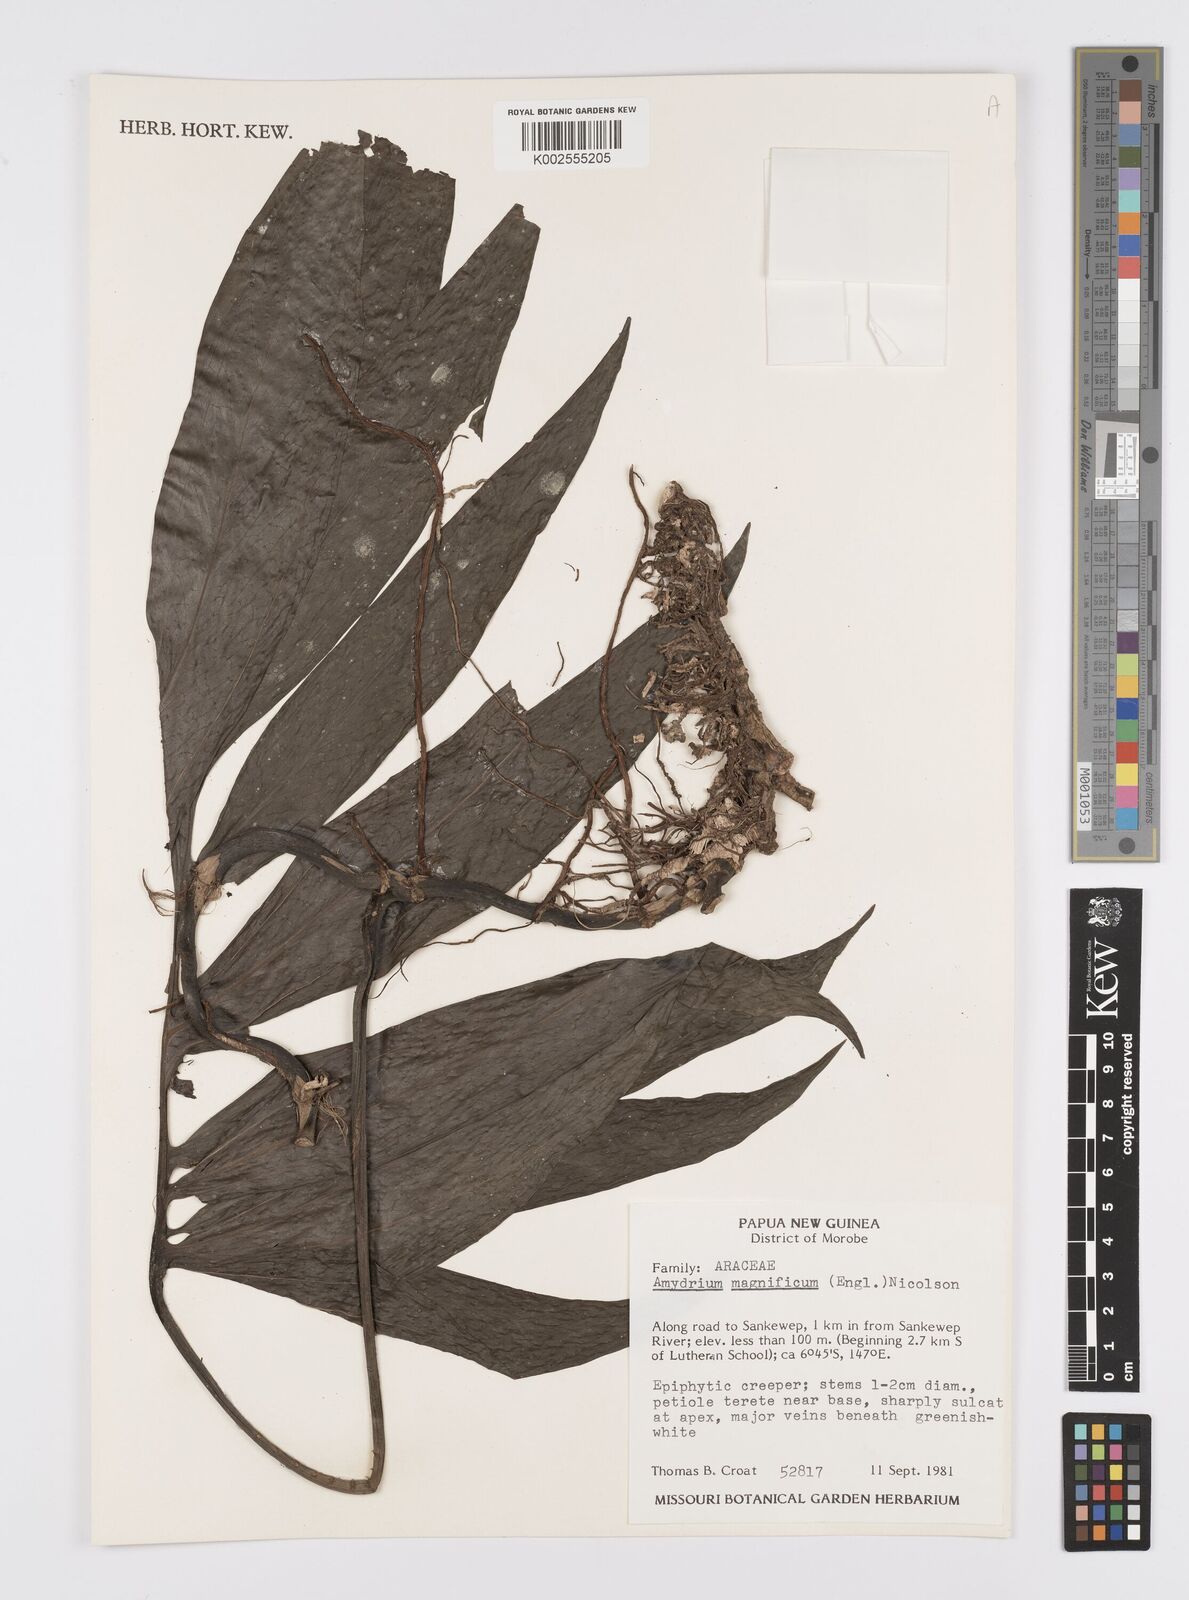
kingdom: Plantae
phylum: Tracheophyta
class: Liliopsida
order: Alismatales
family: Araceae
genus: Amydrium
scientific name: Amydrium zippelianum
